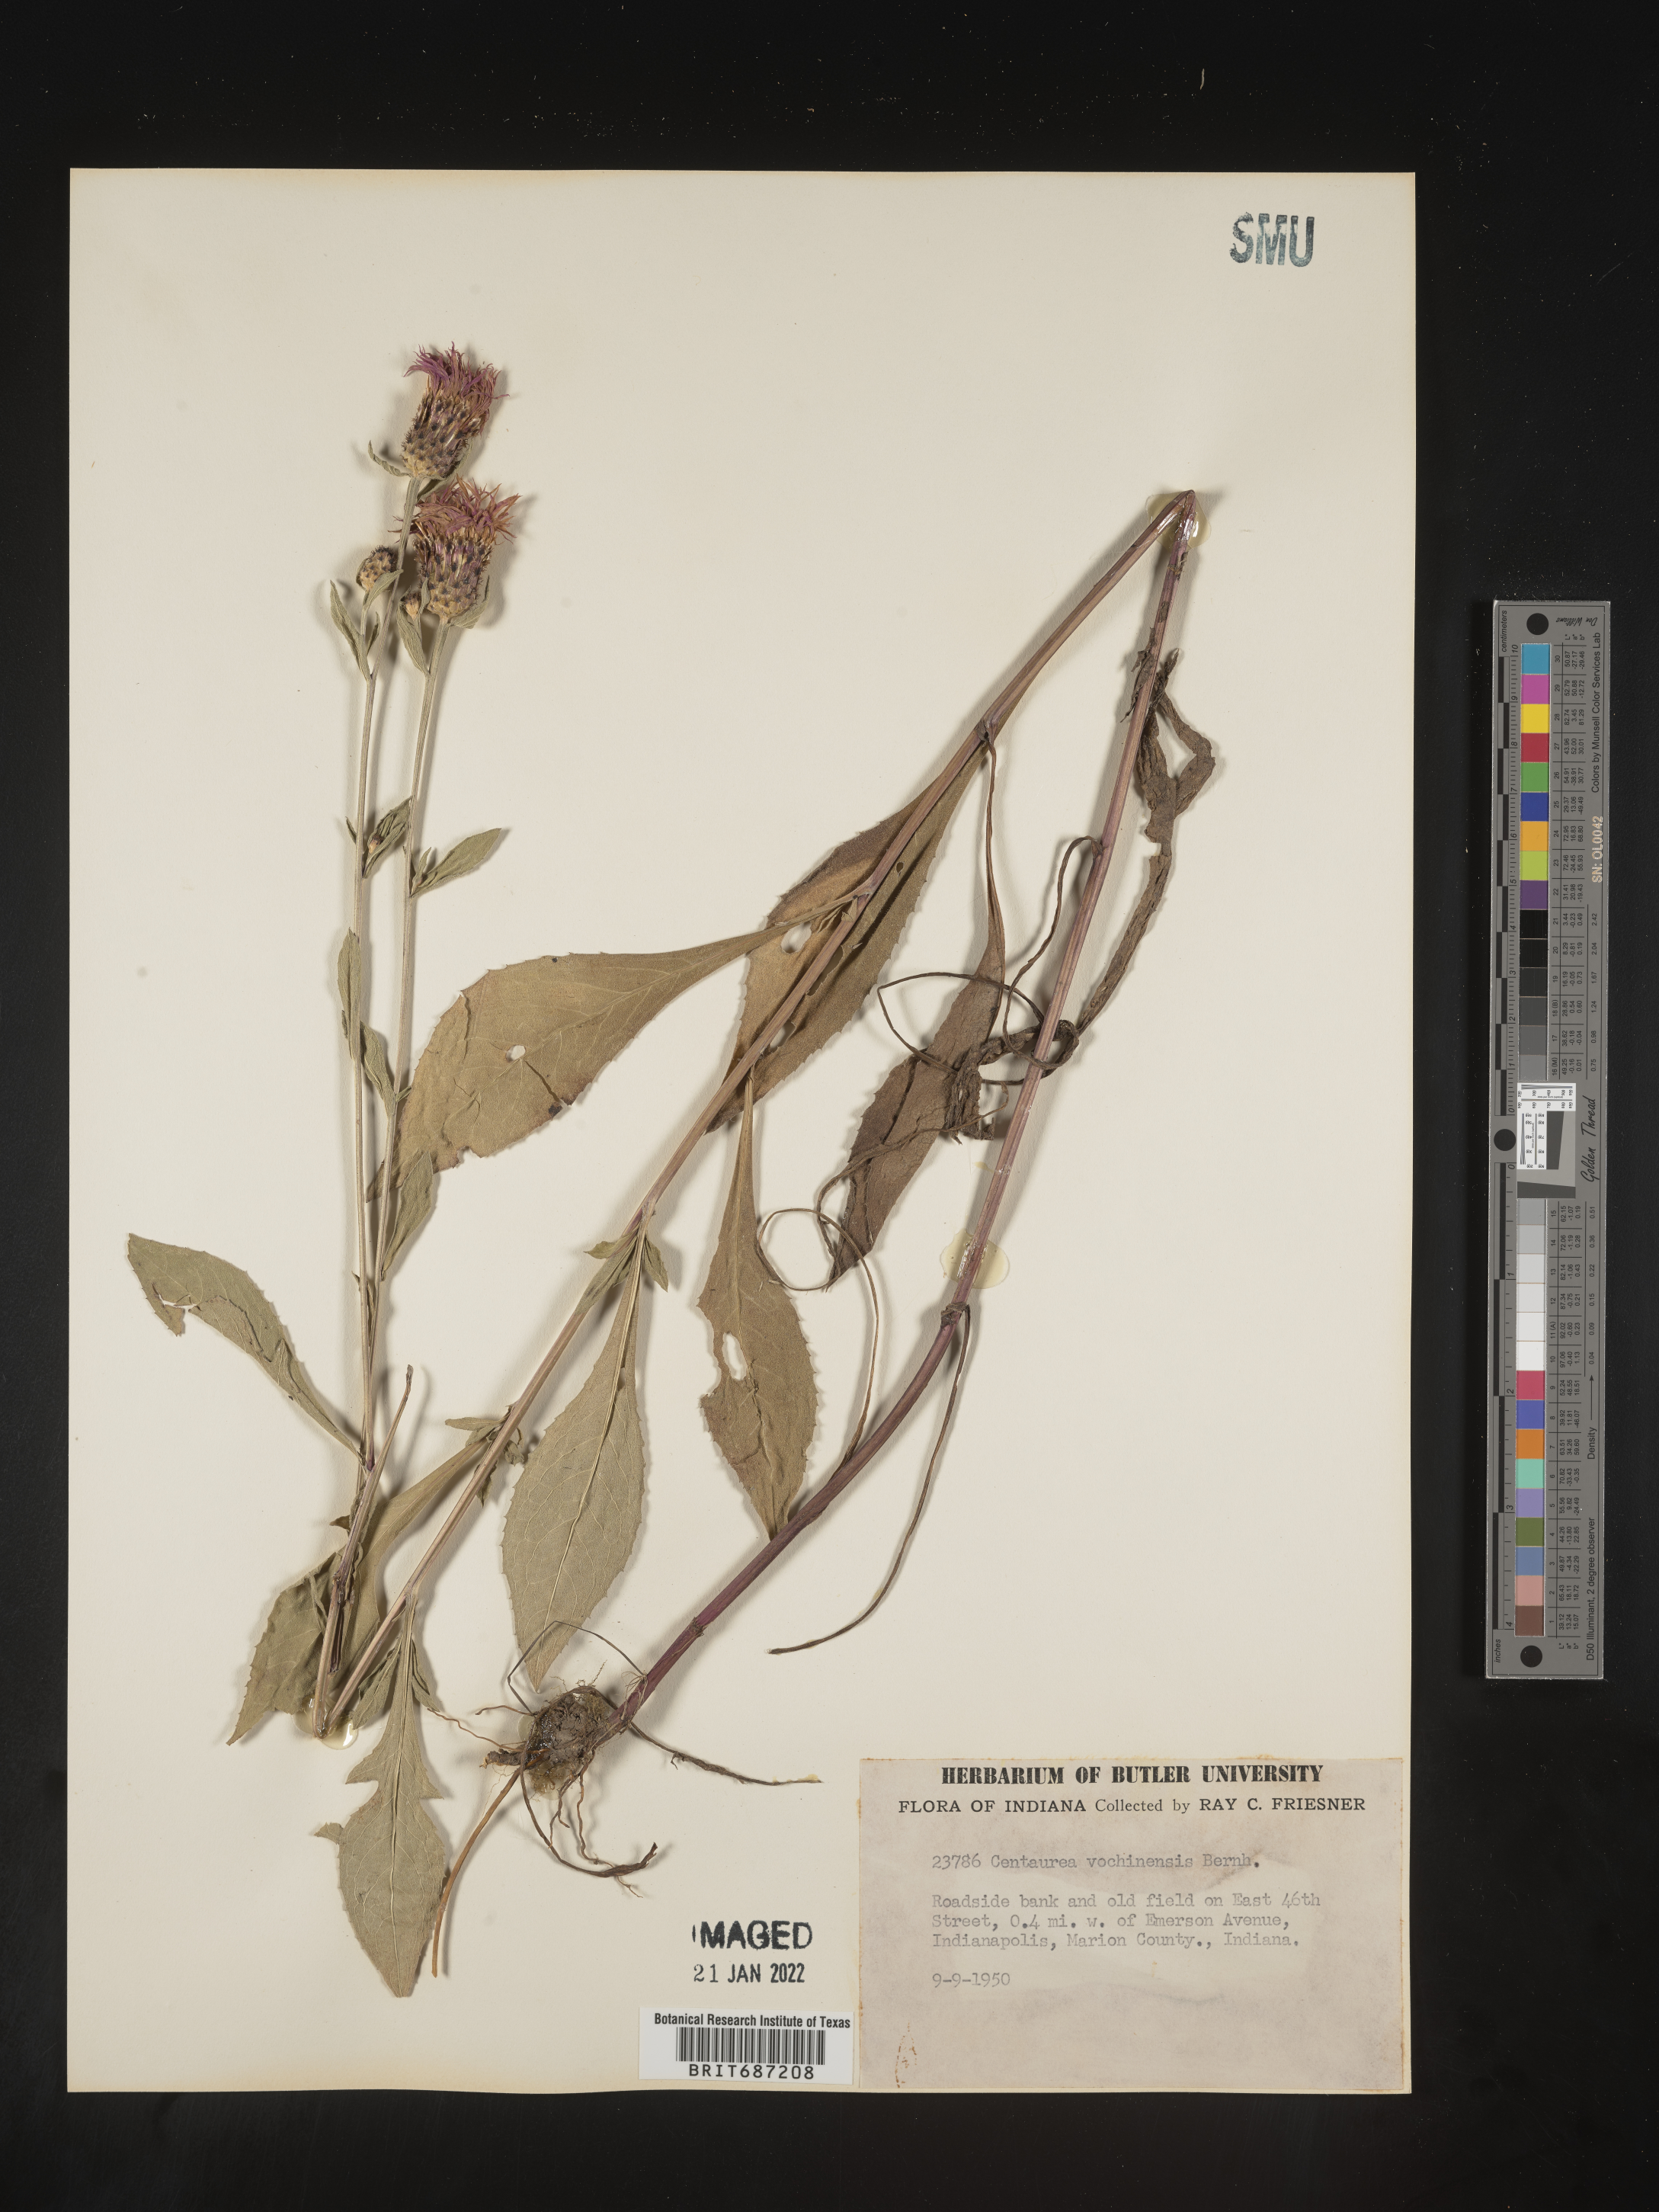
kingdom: Plantae
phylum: Tracheophyta
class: Magnoliopsida
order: Asterales
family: Asteraceae
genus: Centaurea
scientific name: Centaurea nigrescens
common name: Tyrol knapweed
